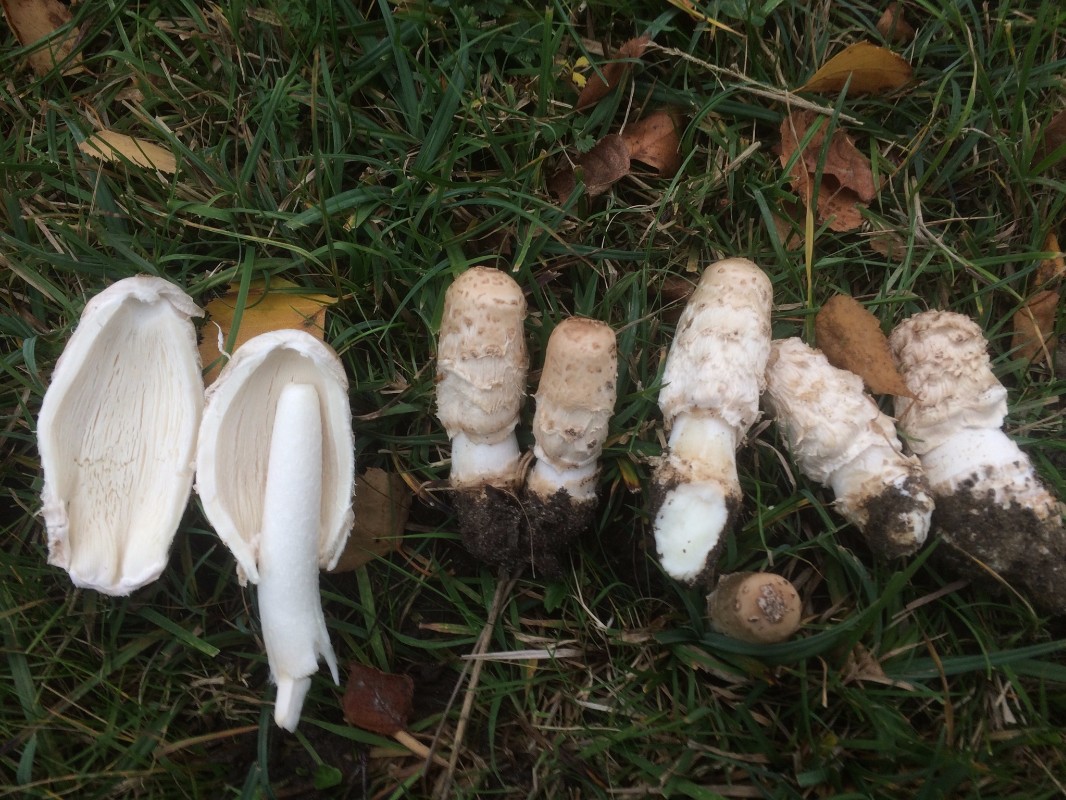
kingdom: Fungi
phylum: Basidiomycota
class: Agaricomycetes
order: Agaricales
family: Agaricaceae
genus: Coprinus
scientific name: Coprinus comatus
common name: stor parykhat
